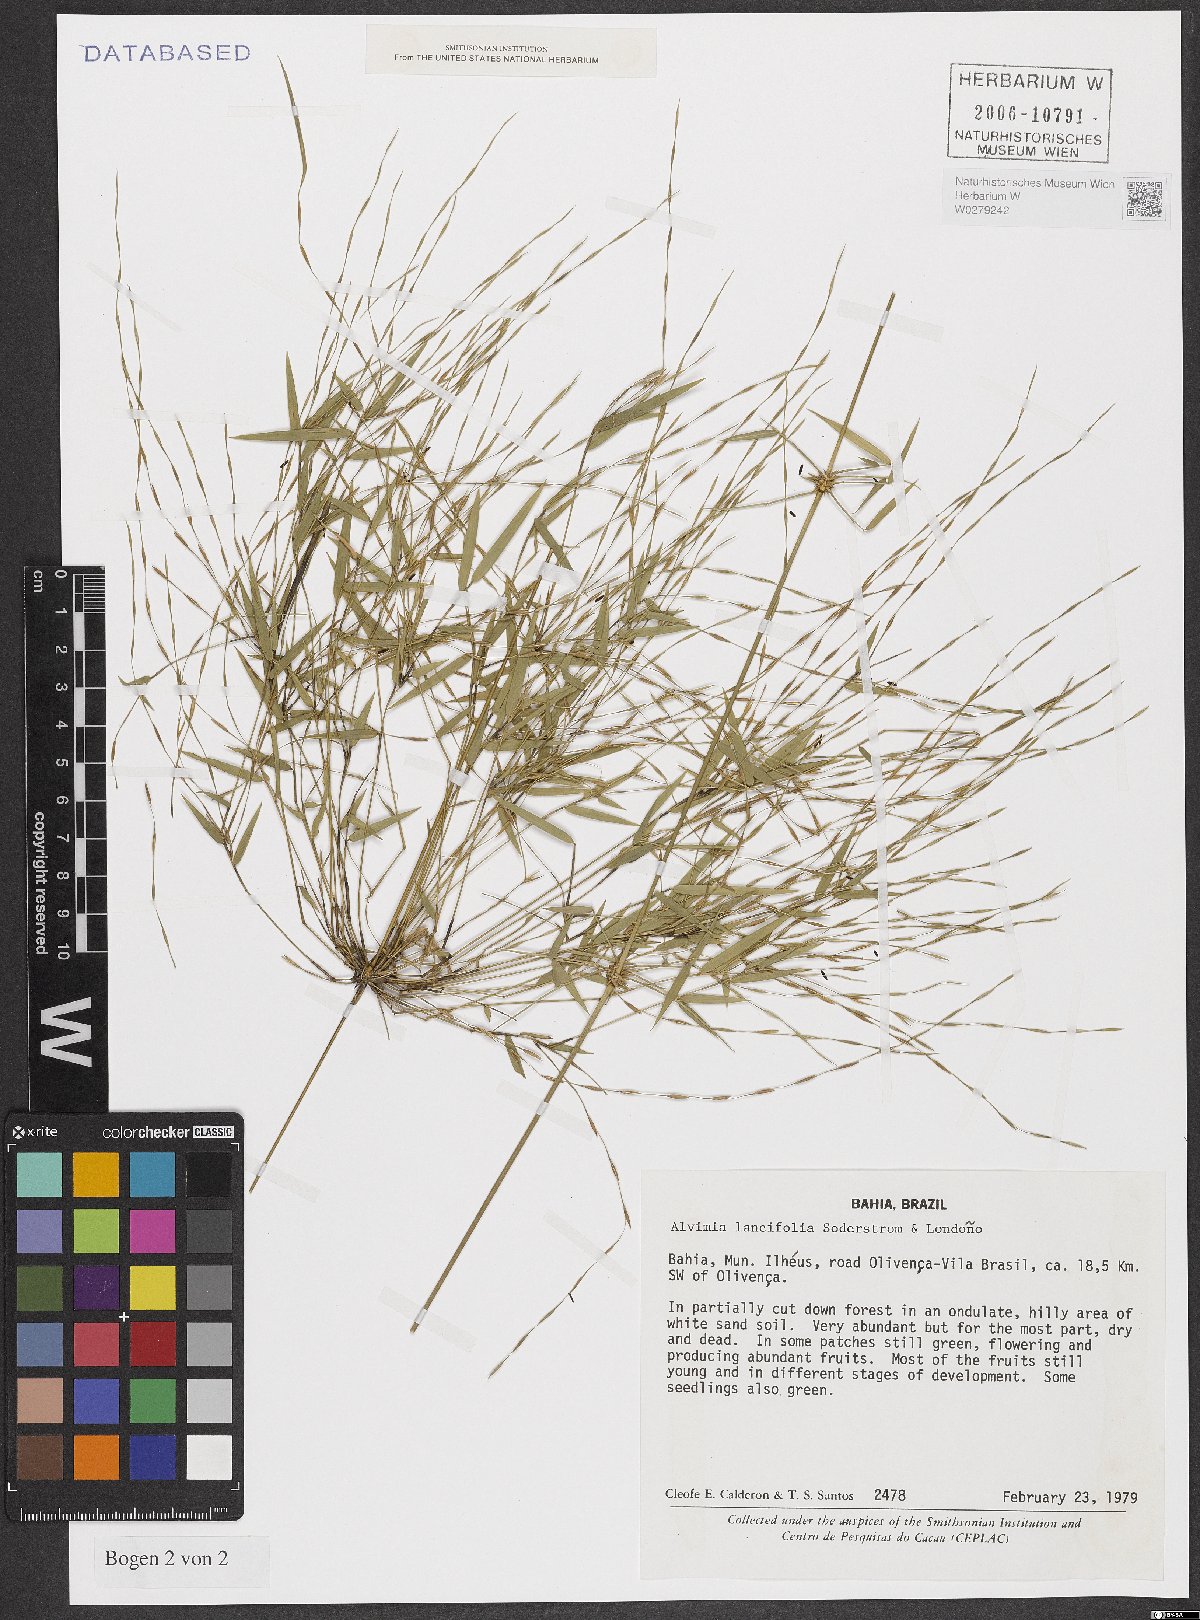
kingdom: Plantae
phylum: Tracheophyta
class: Liliopsida
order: Poales
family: Poaceae
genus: Alvimia
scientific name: Alvimia lancifolia
